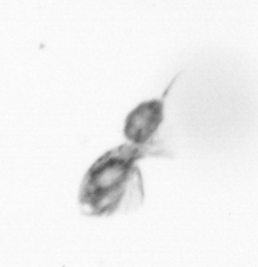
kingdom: Animalia
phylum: Arthropoda
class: Copepoda
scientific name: Copepoda
